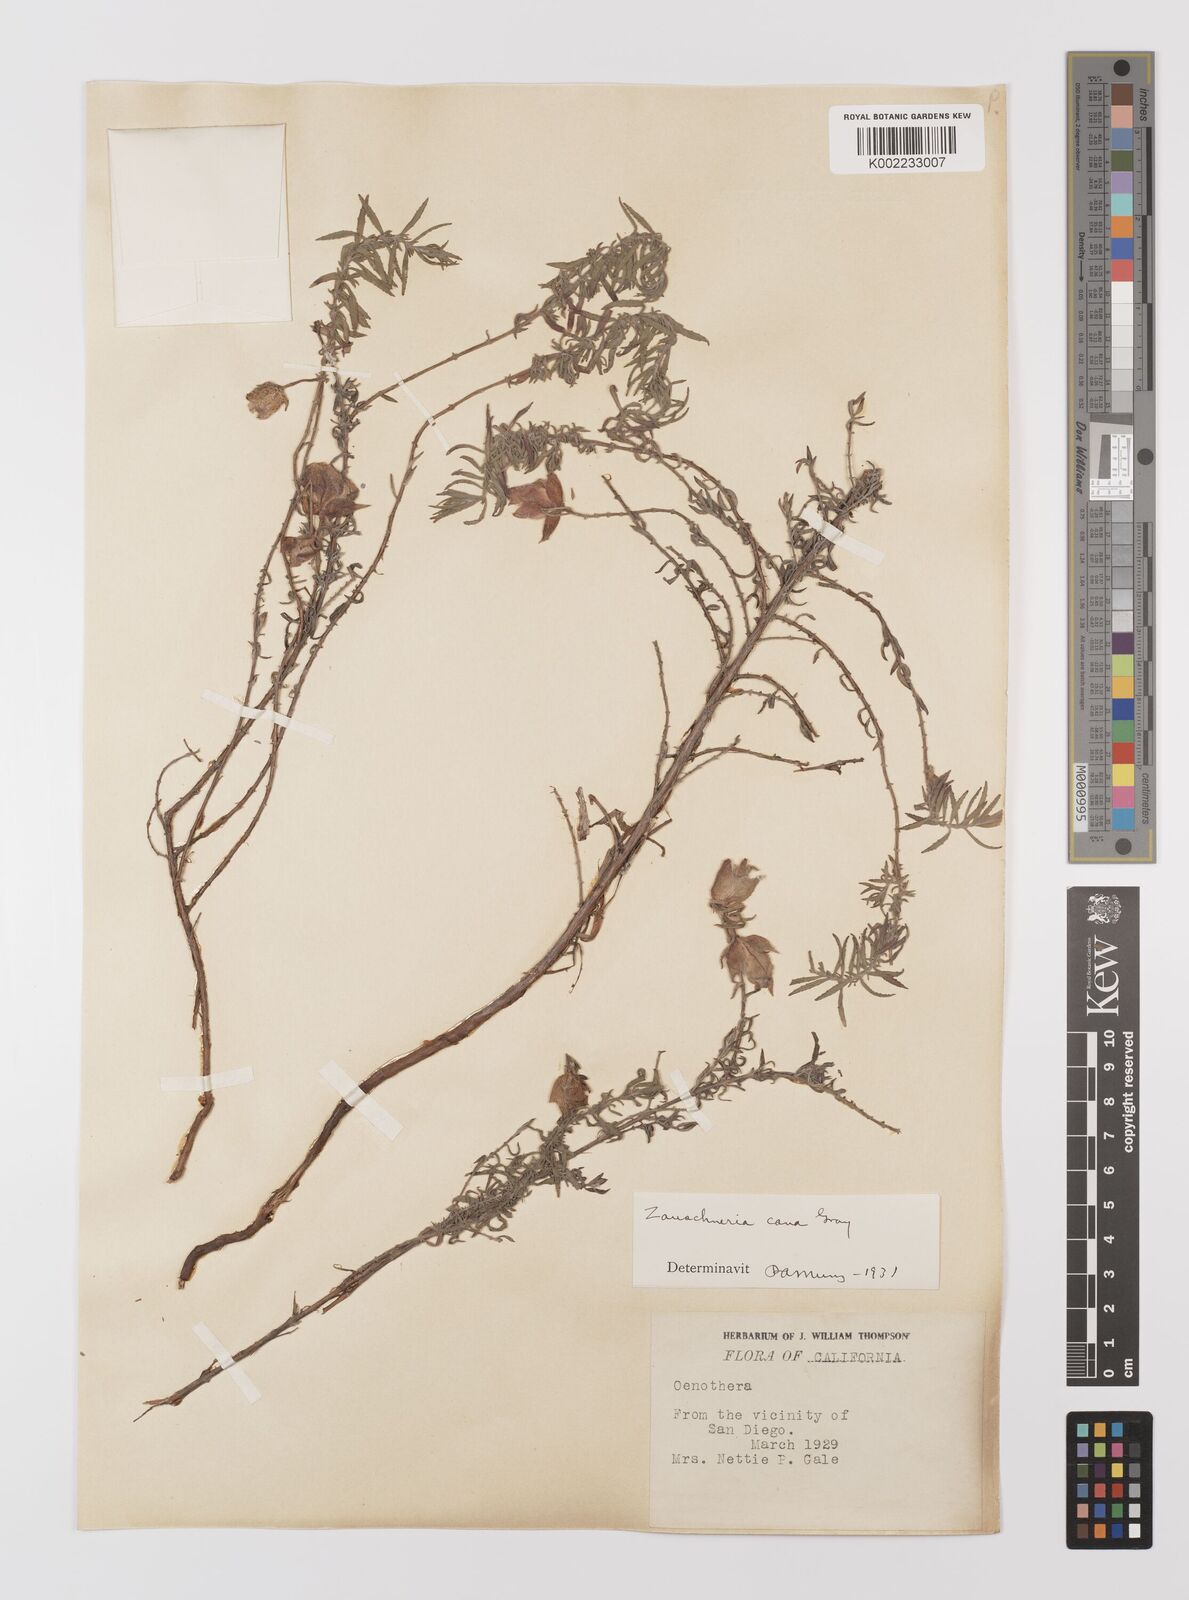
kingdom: Plantae
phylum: Tracheophyta
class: Magnoliopsida
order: Myrtales
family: Onagraceae
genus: Epilobium
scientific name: Epilobium canum
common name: California-fuchsia
